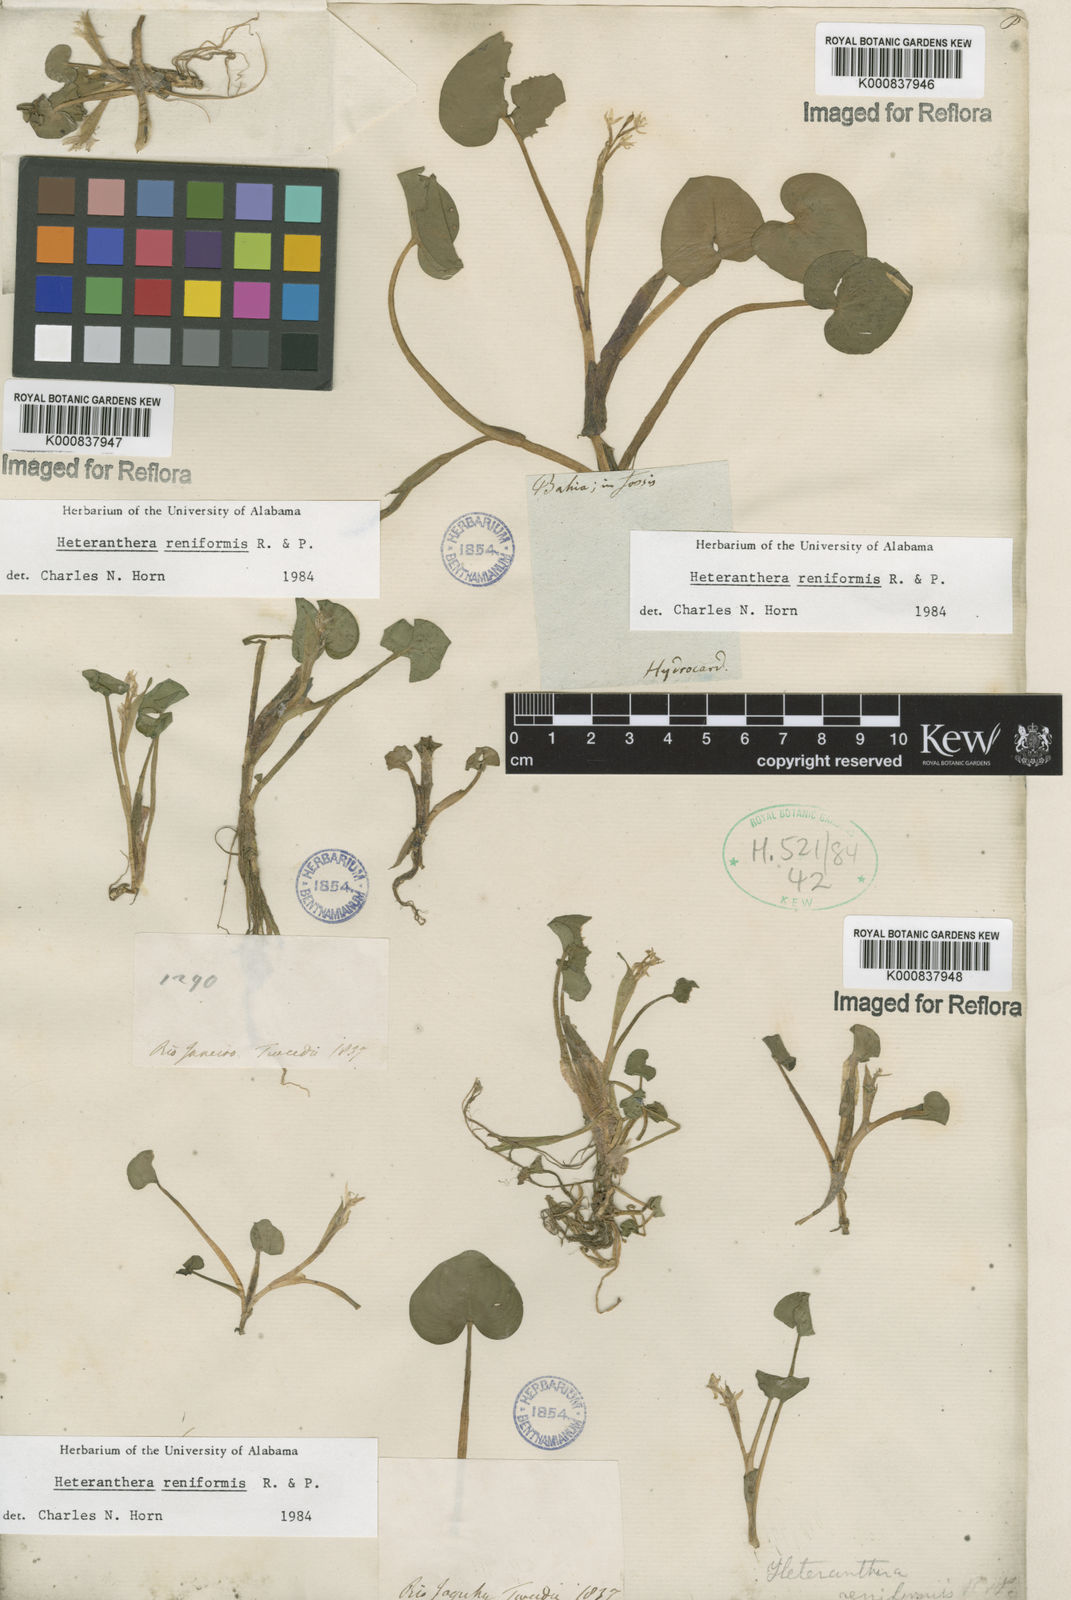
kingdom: Plantae
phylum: Tracheophyta
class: Liliopsida
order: Commelinales
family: Pontederiaceae
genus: Heteranthera
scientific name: Heteranthera reniformis
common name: Kidneyleaf mudplantain
